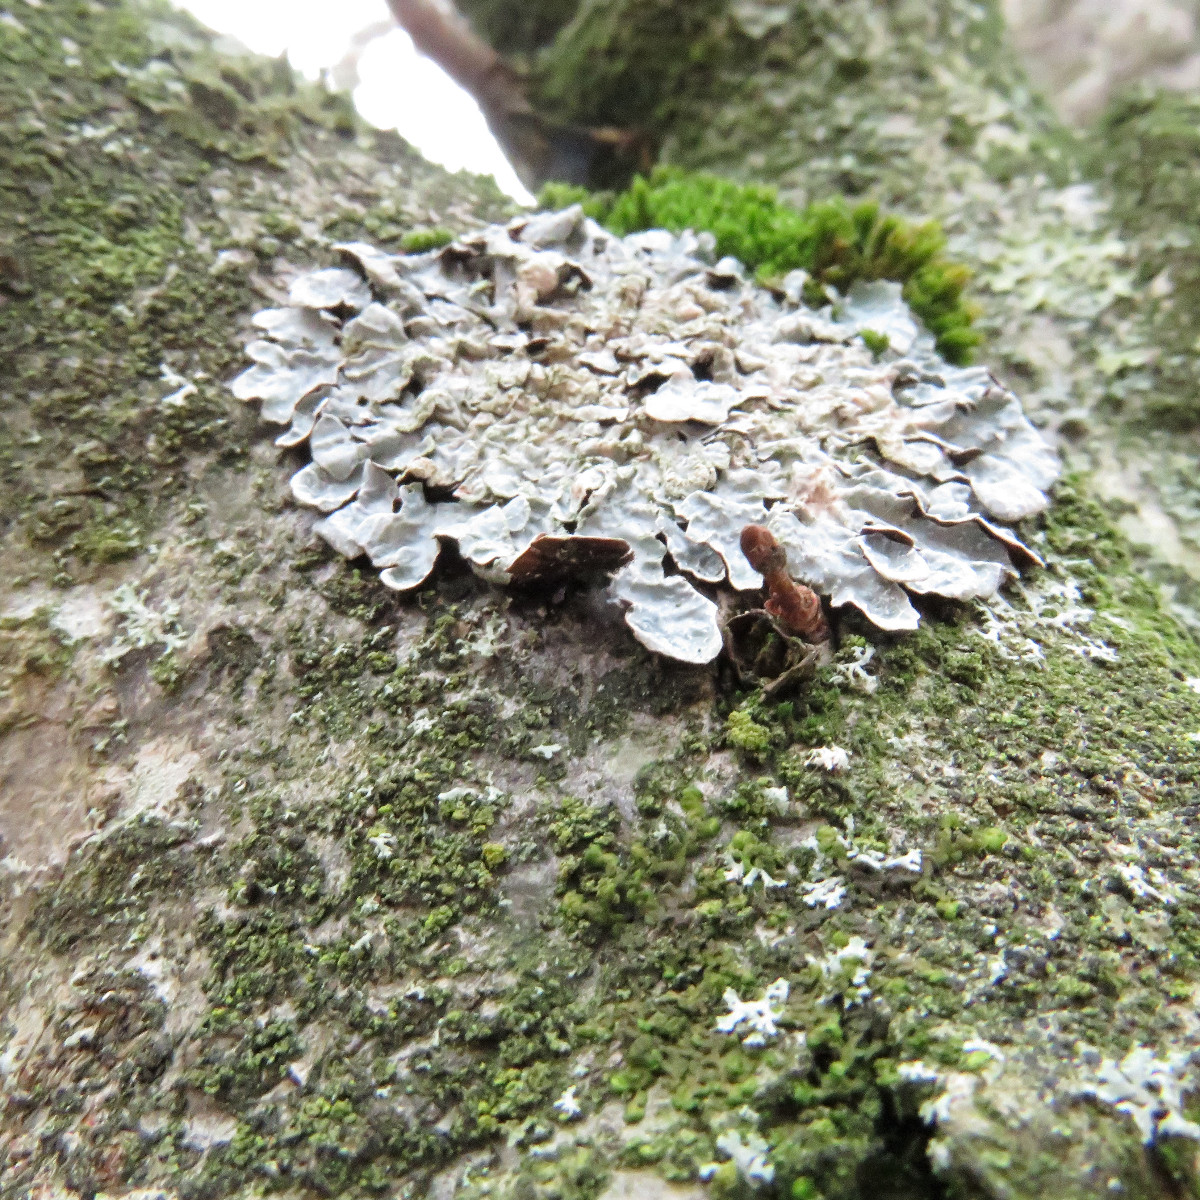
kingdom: Fungi
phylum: Ascomycota
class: Lecanoromycetes
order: Lecanorales
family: Parmeliaceae
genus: Parmelia
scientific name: Parmelia sulcata
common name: rynket skållav
